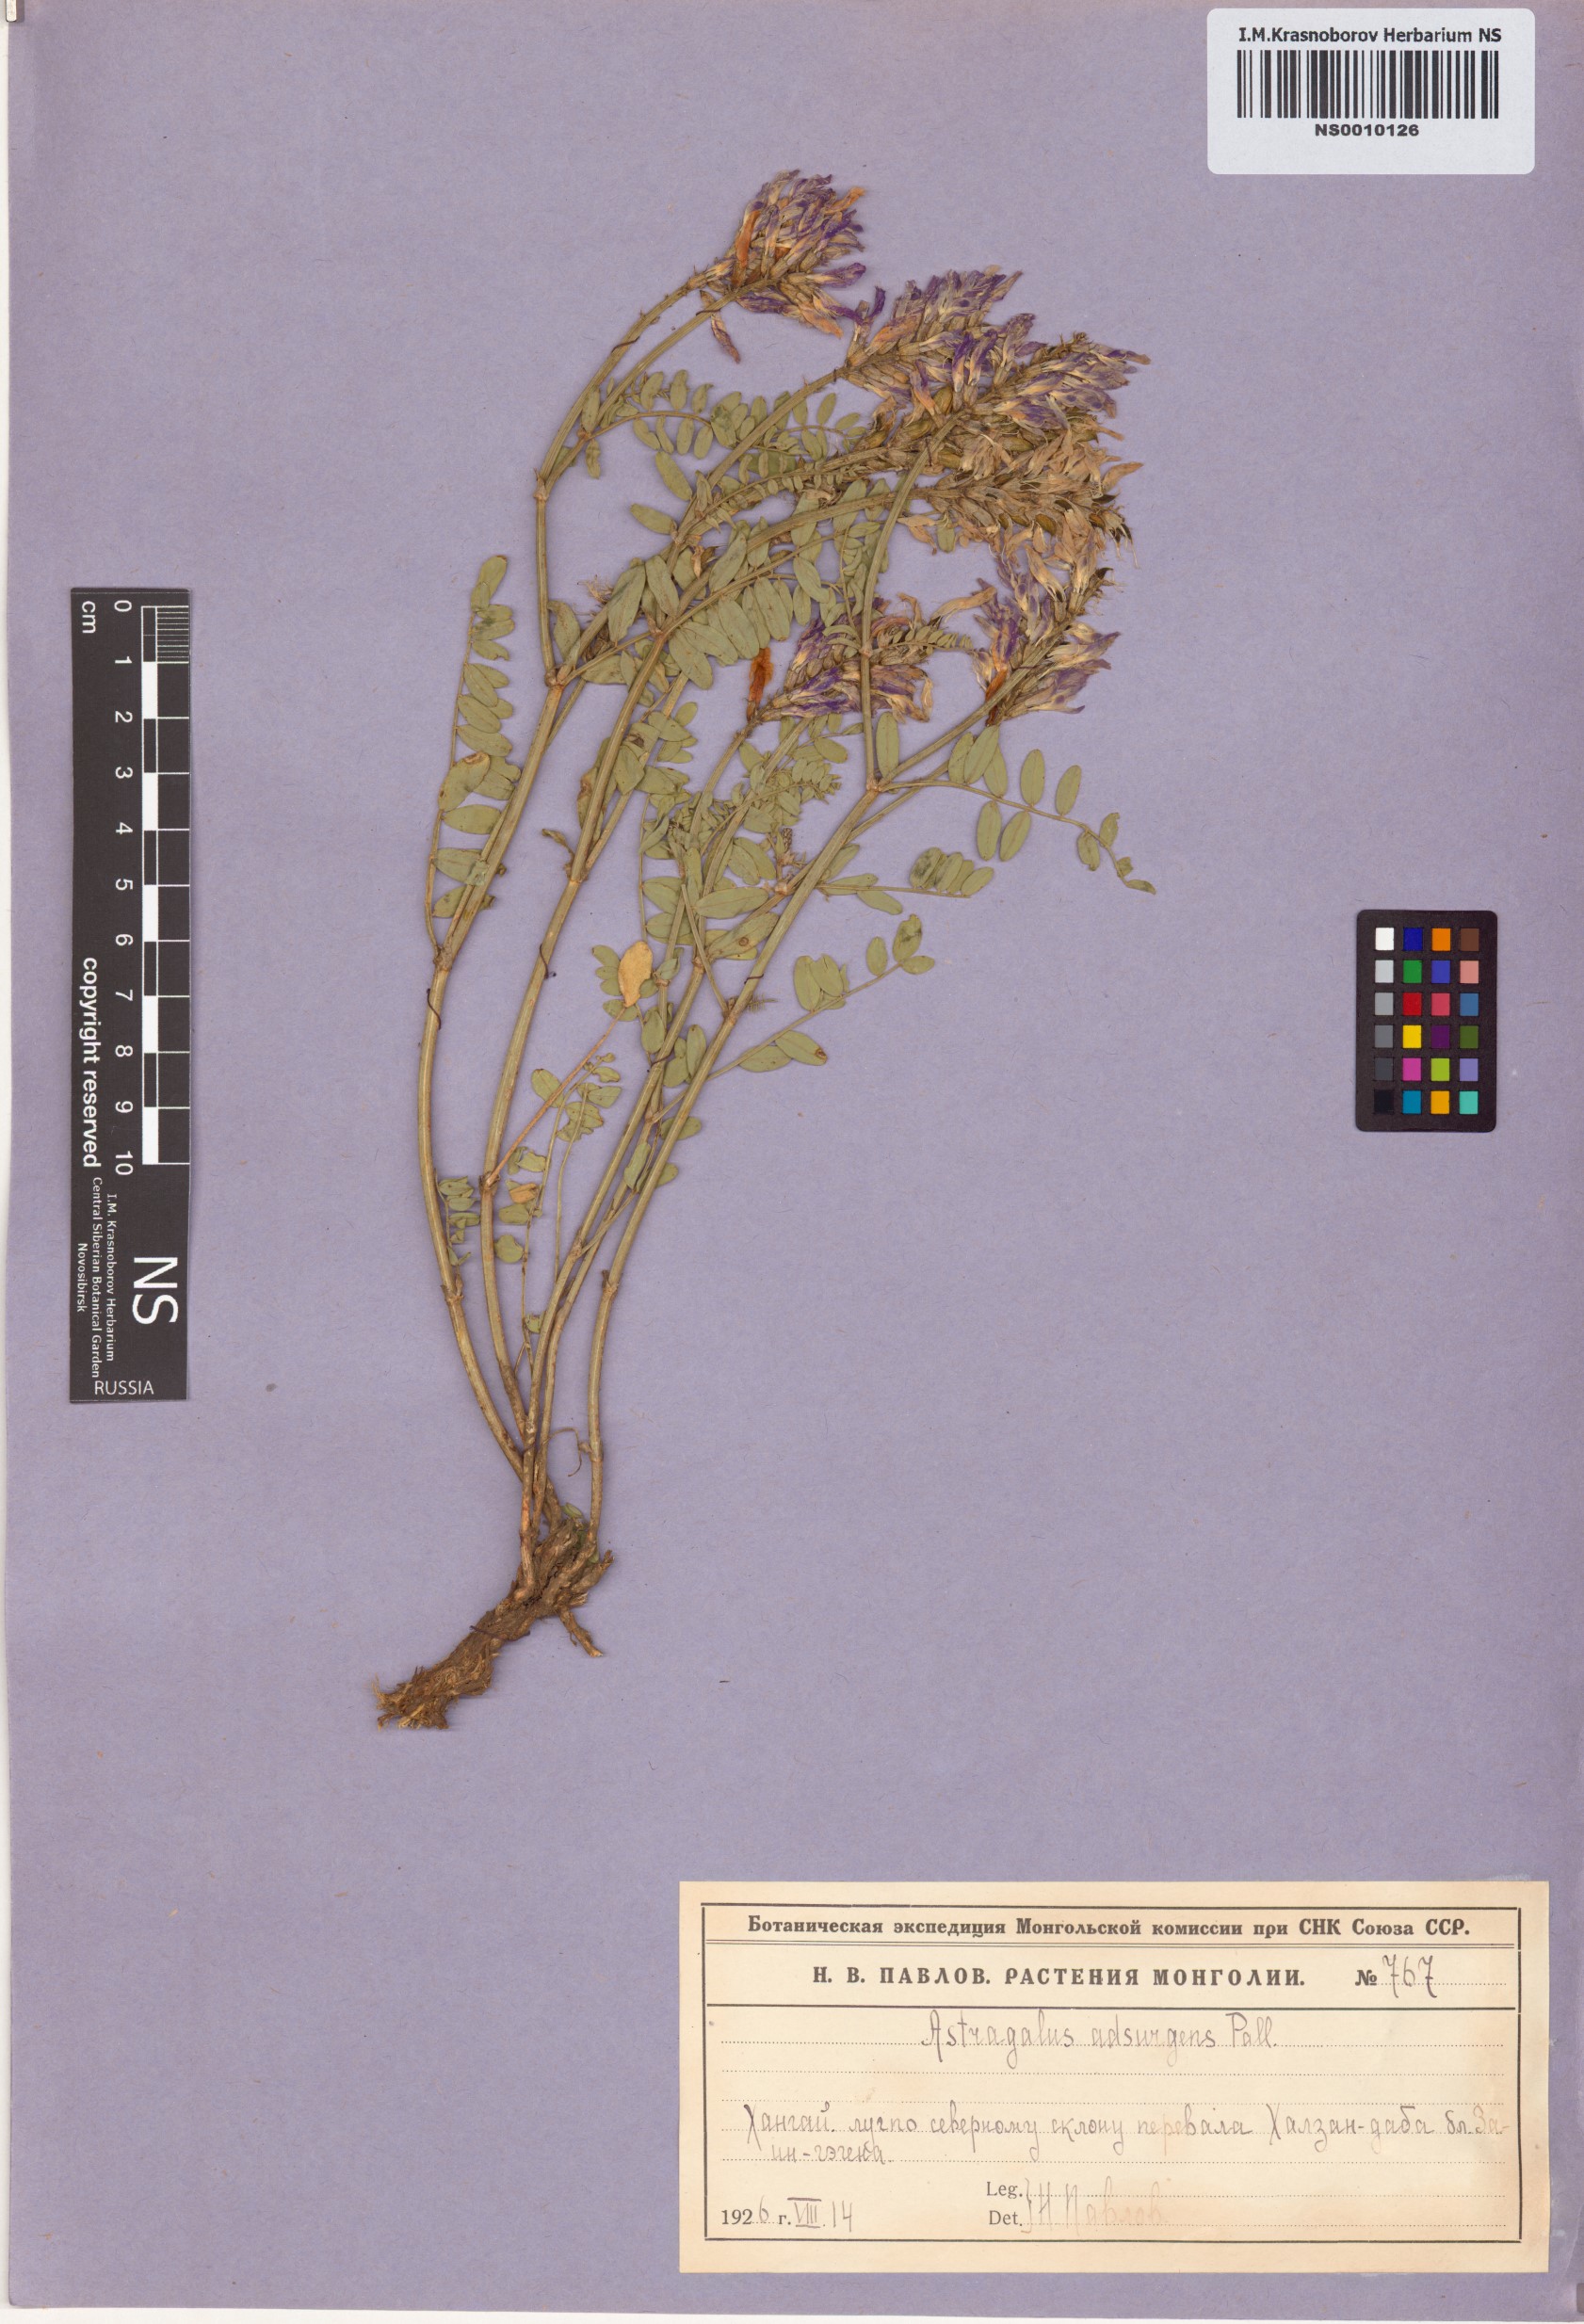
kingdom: Plantae
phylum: Tracheophyta
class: Magnoliopsida
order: Fabales
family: Fabaceae
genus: Astragalus
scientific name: Astragalus laxmannii
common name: Laxmann's milk-vetch
